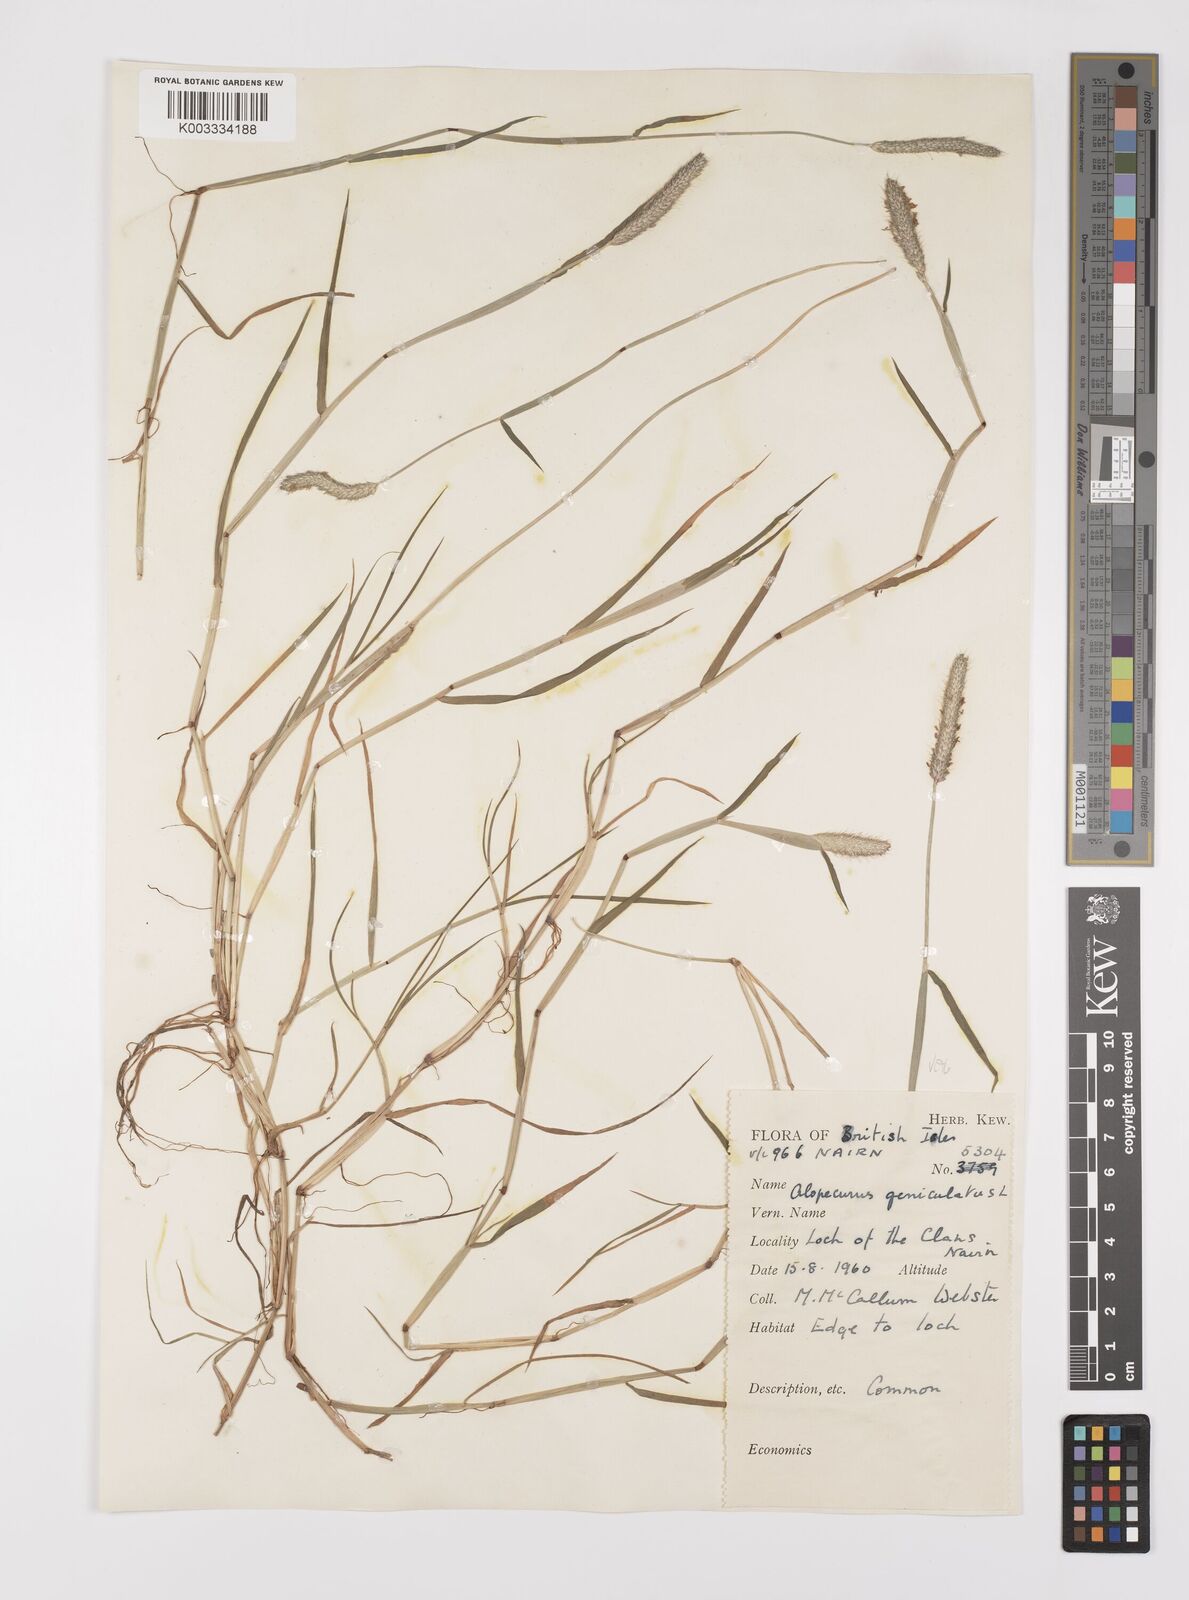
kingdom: Plantae
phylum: Tracheophyta
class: Liliopsida
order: Poales
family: Poaceae
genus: Alopecurus
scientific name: Alopecurus geniculatus
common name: Water foxtail
